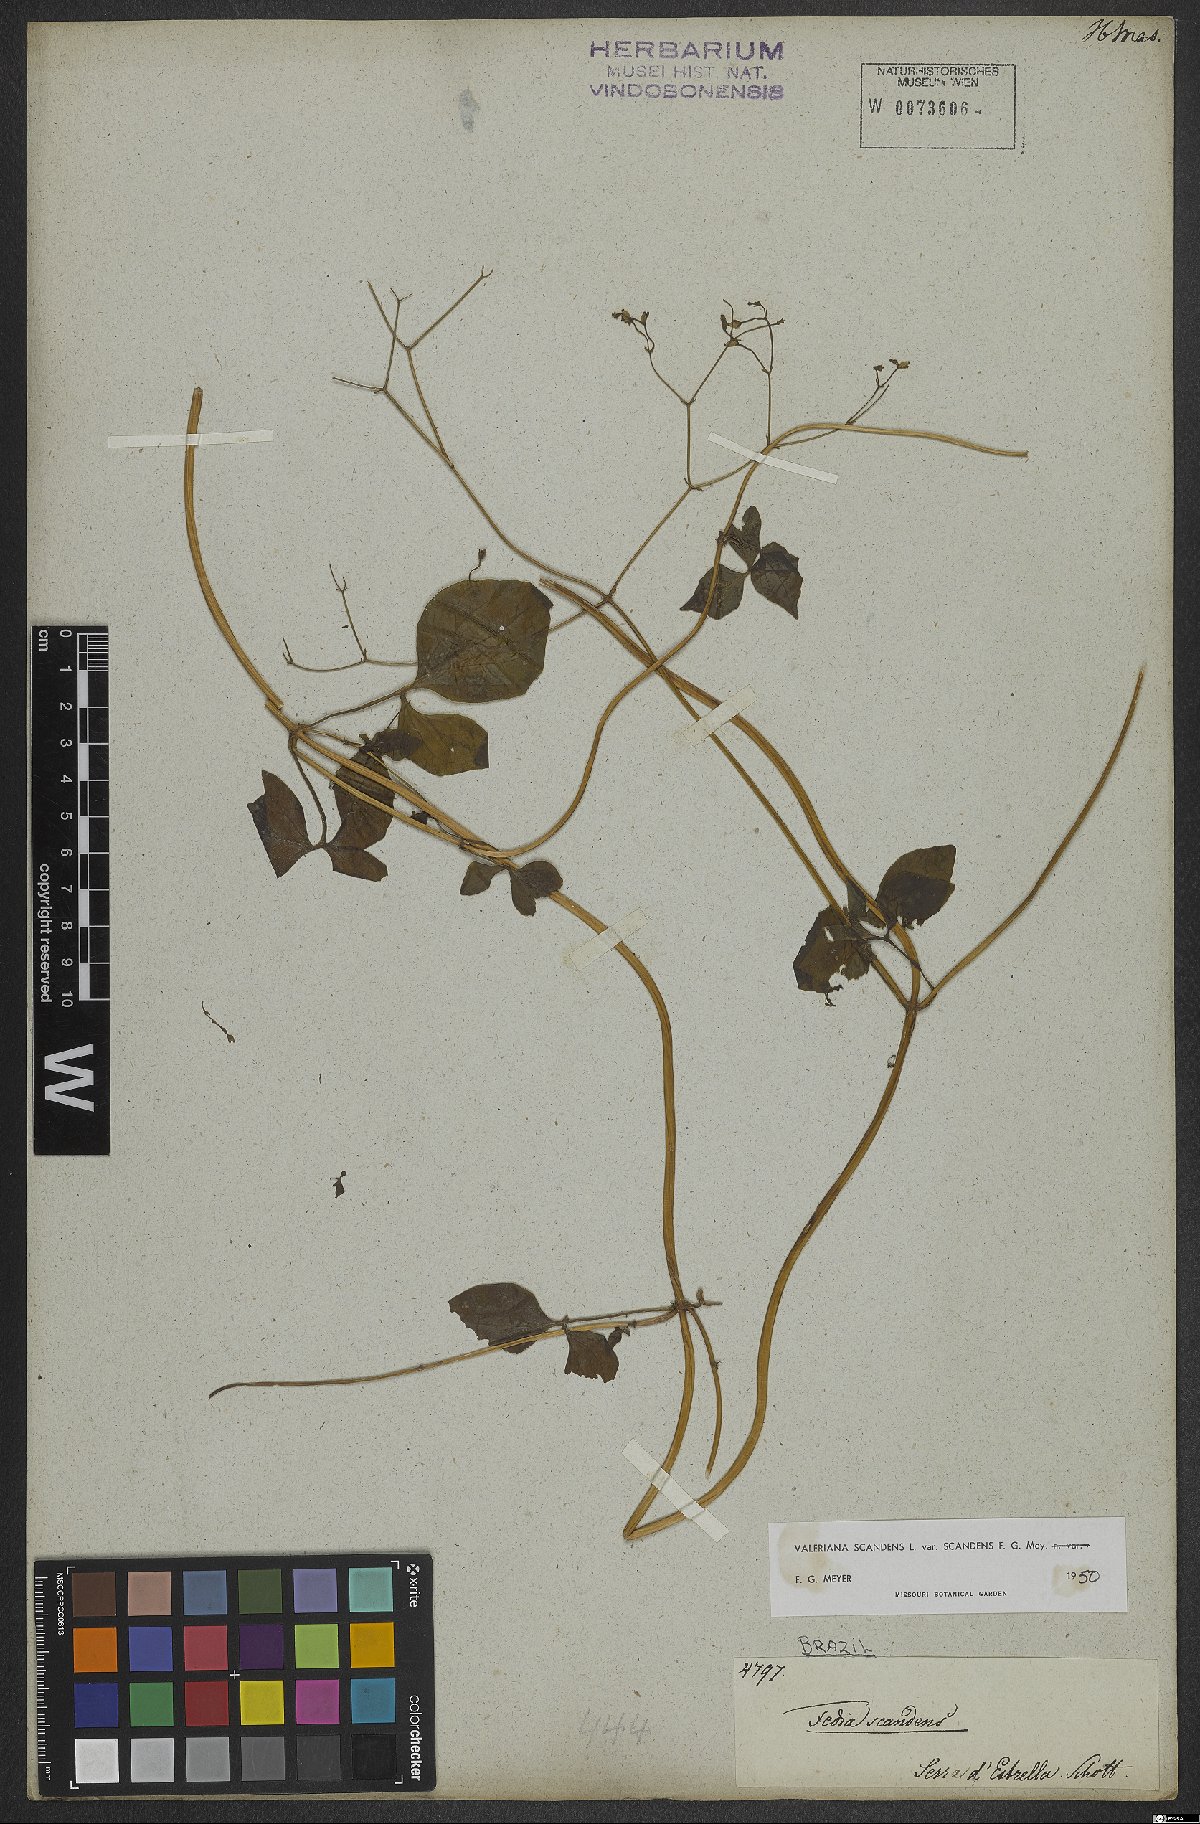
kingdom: Plantae
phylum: Tracheophyta
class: Magnoliopsida
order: Dipsacales
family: Caprifoliaceae
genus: Valeriana
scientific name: Valeriana scandens
